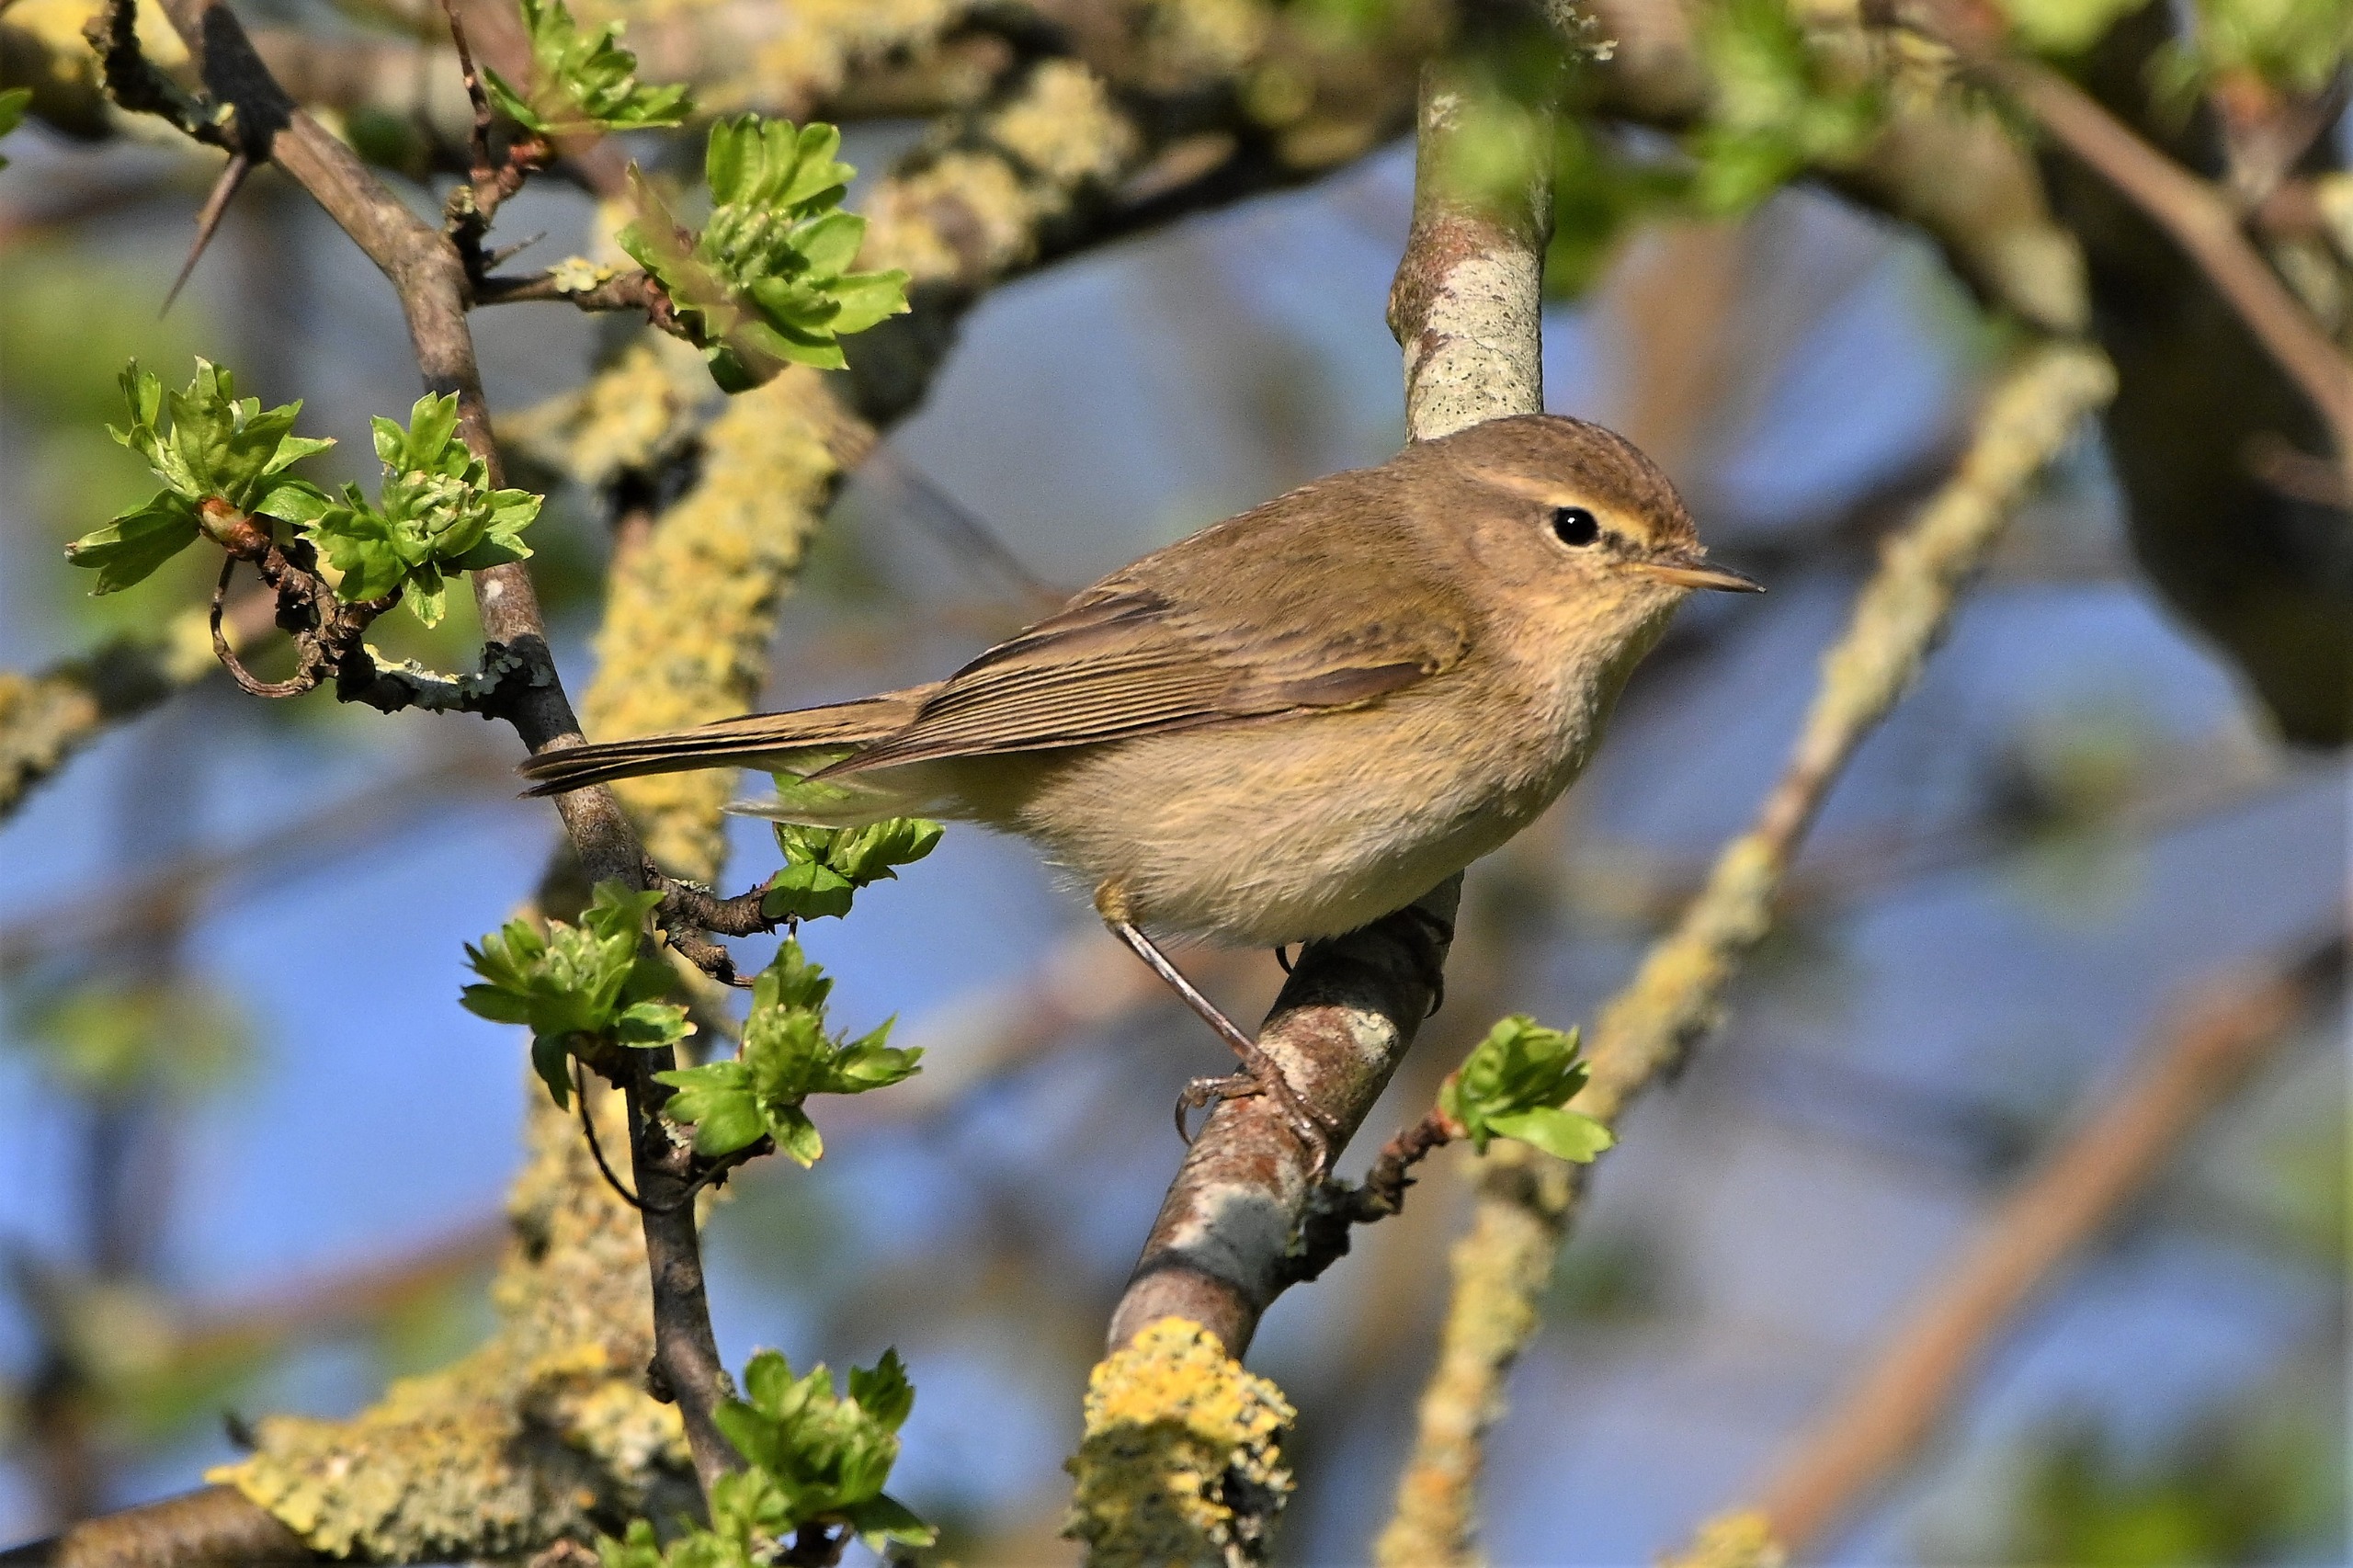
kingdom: Animalia
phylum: Chordata
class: Aves
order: Passeriformes
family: Phylloscopidae
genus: Phylloscopus
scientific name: Phylloscopus collybita
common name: Gransanger
